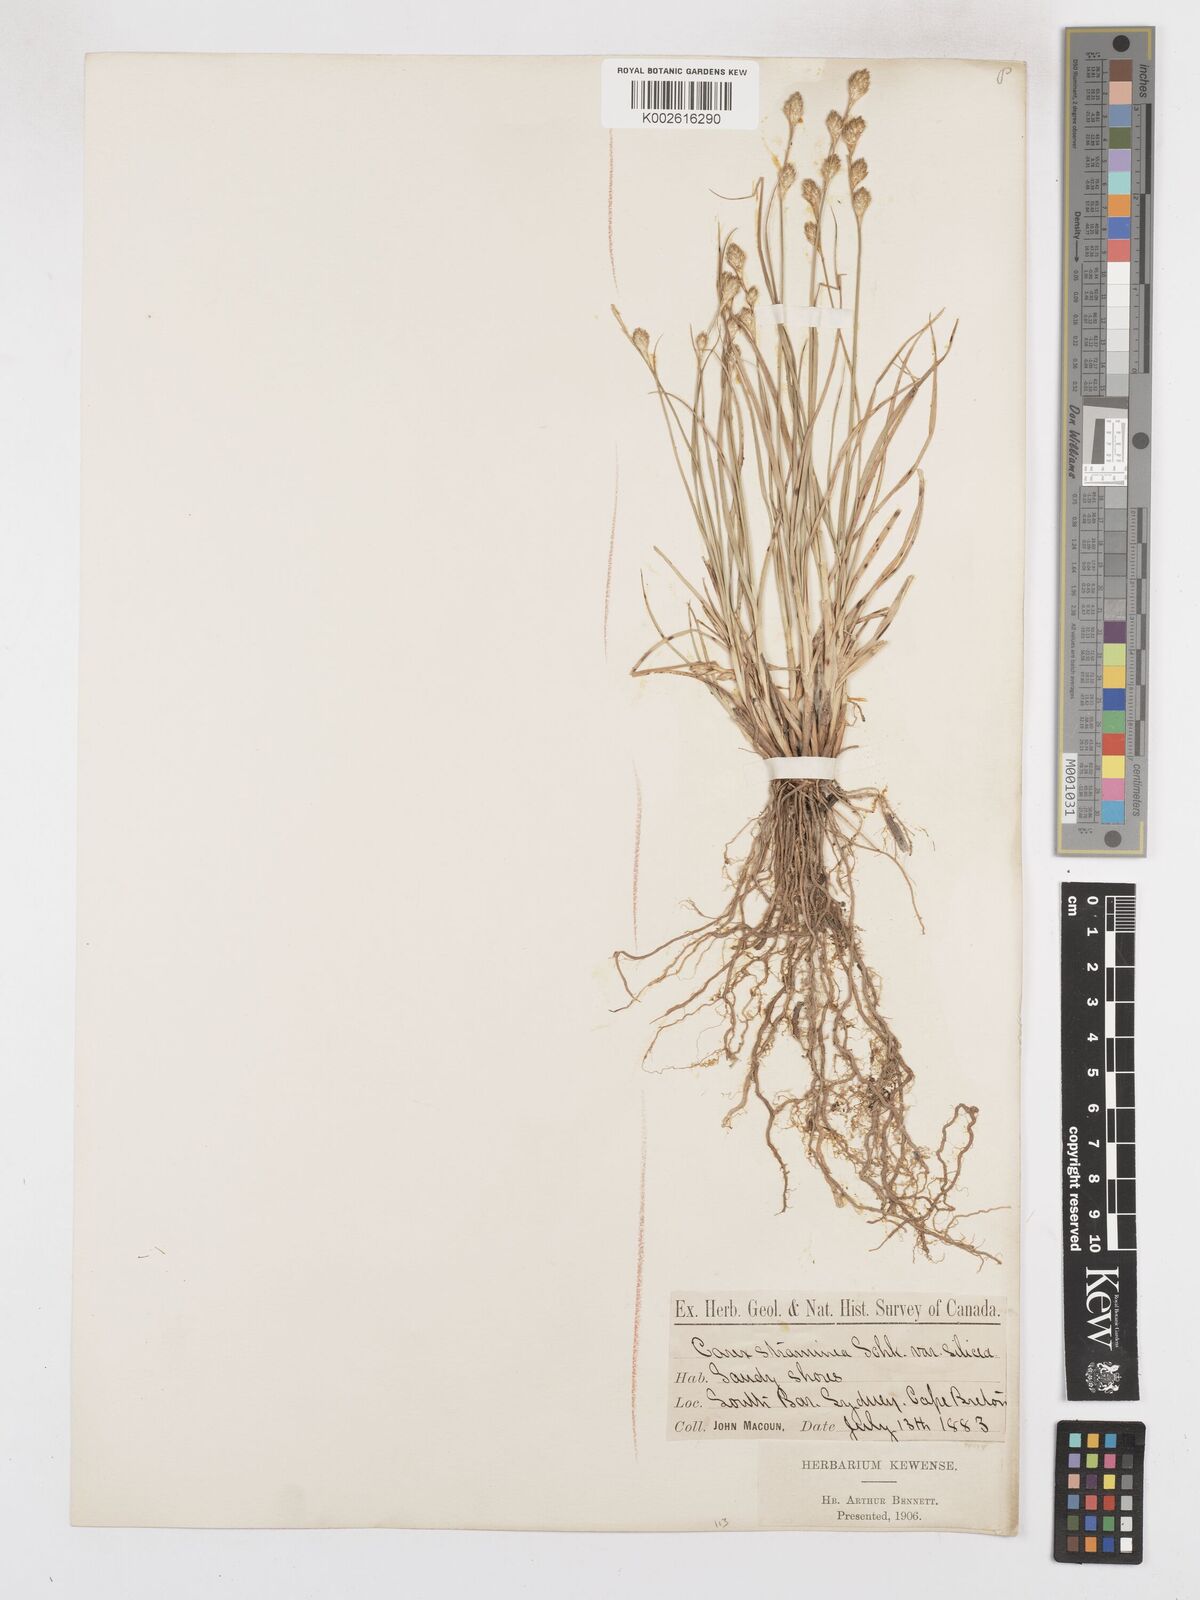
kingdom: Plantae
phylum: Tracheophyta
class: Liliopsida
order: Poales
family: Cyperaceae
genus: Carex
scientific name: Carex silicea
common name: Beach sedge
